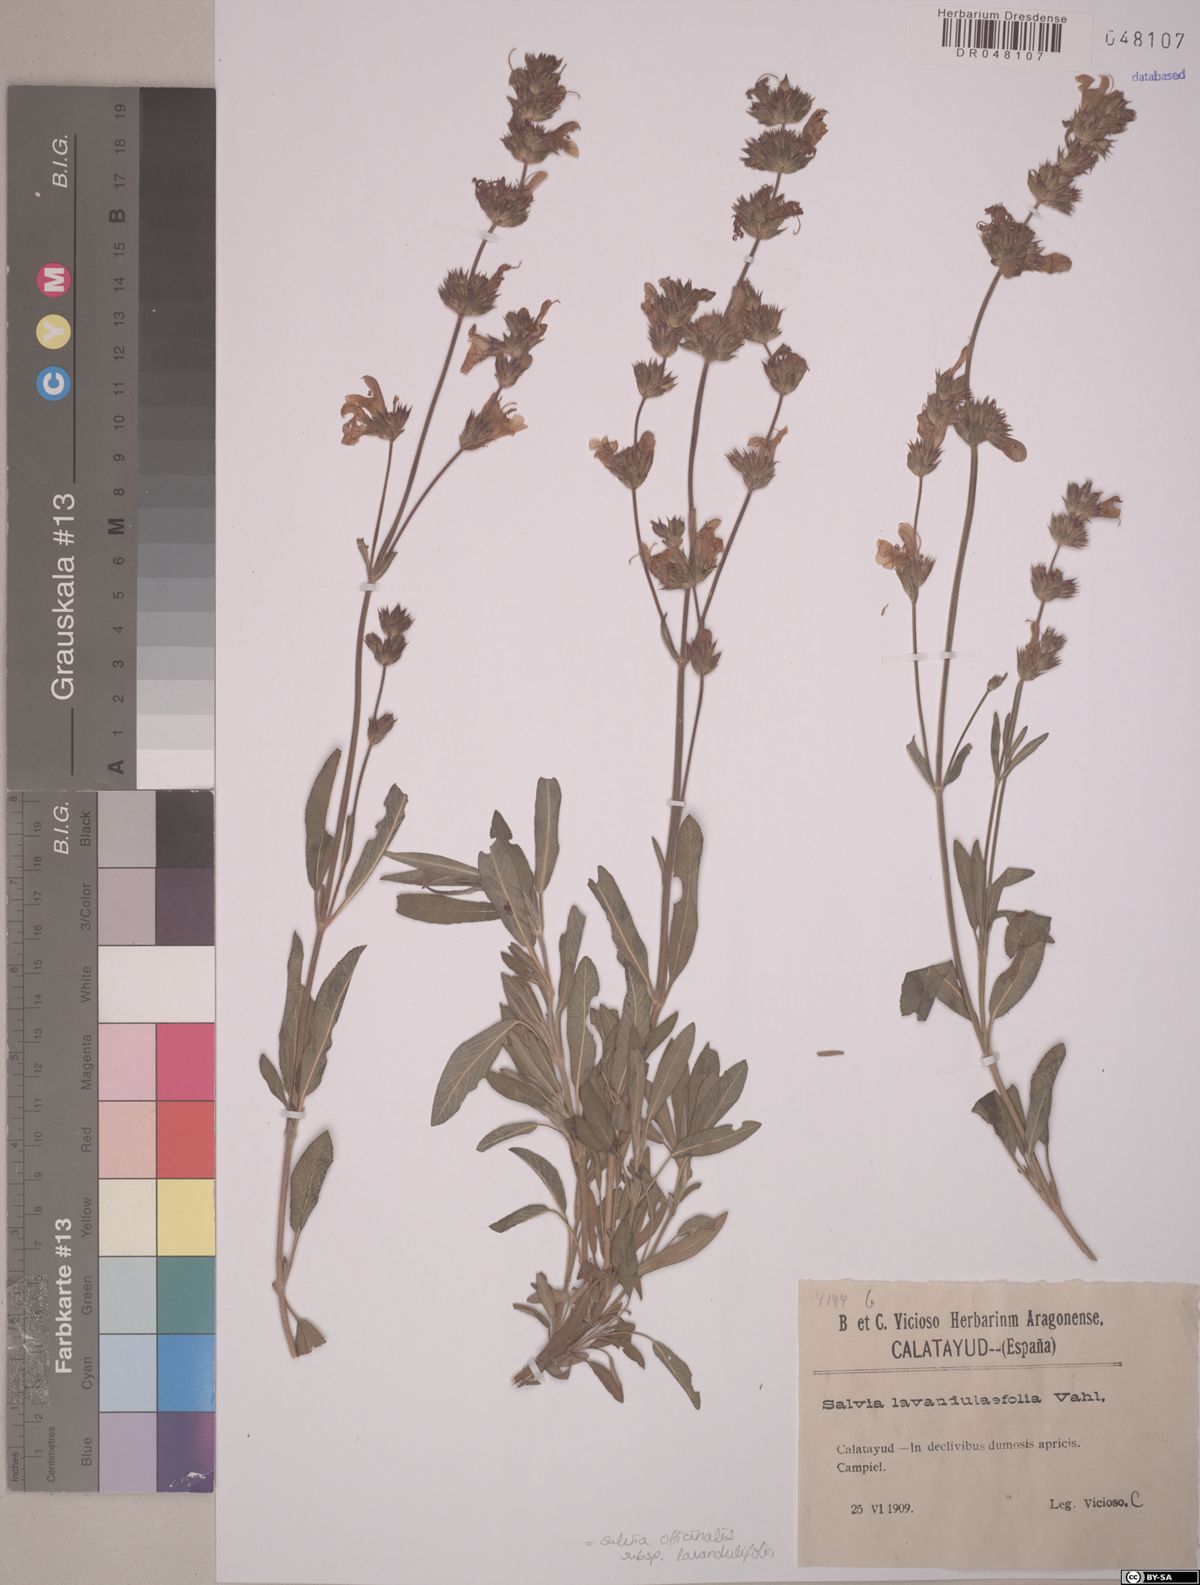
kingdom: Plantae
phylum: Tracheophyta
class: Magnoliopsida
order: Lamiales
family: Lamiaceae
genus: Salvia
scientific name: Salvia officinalis
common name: Sage
